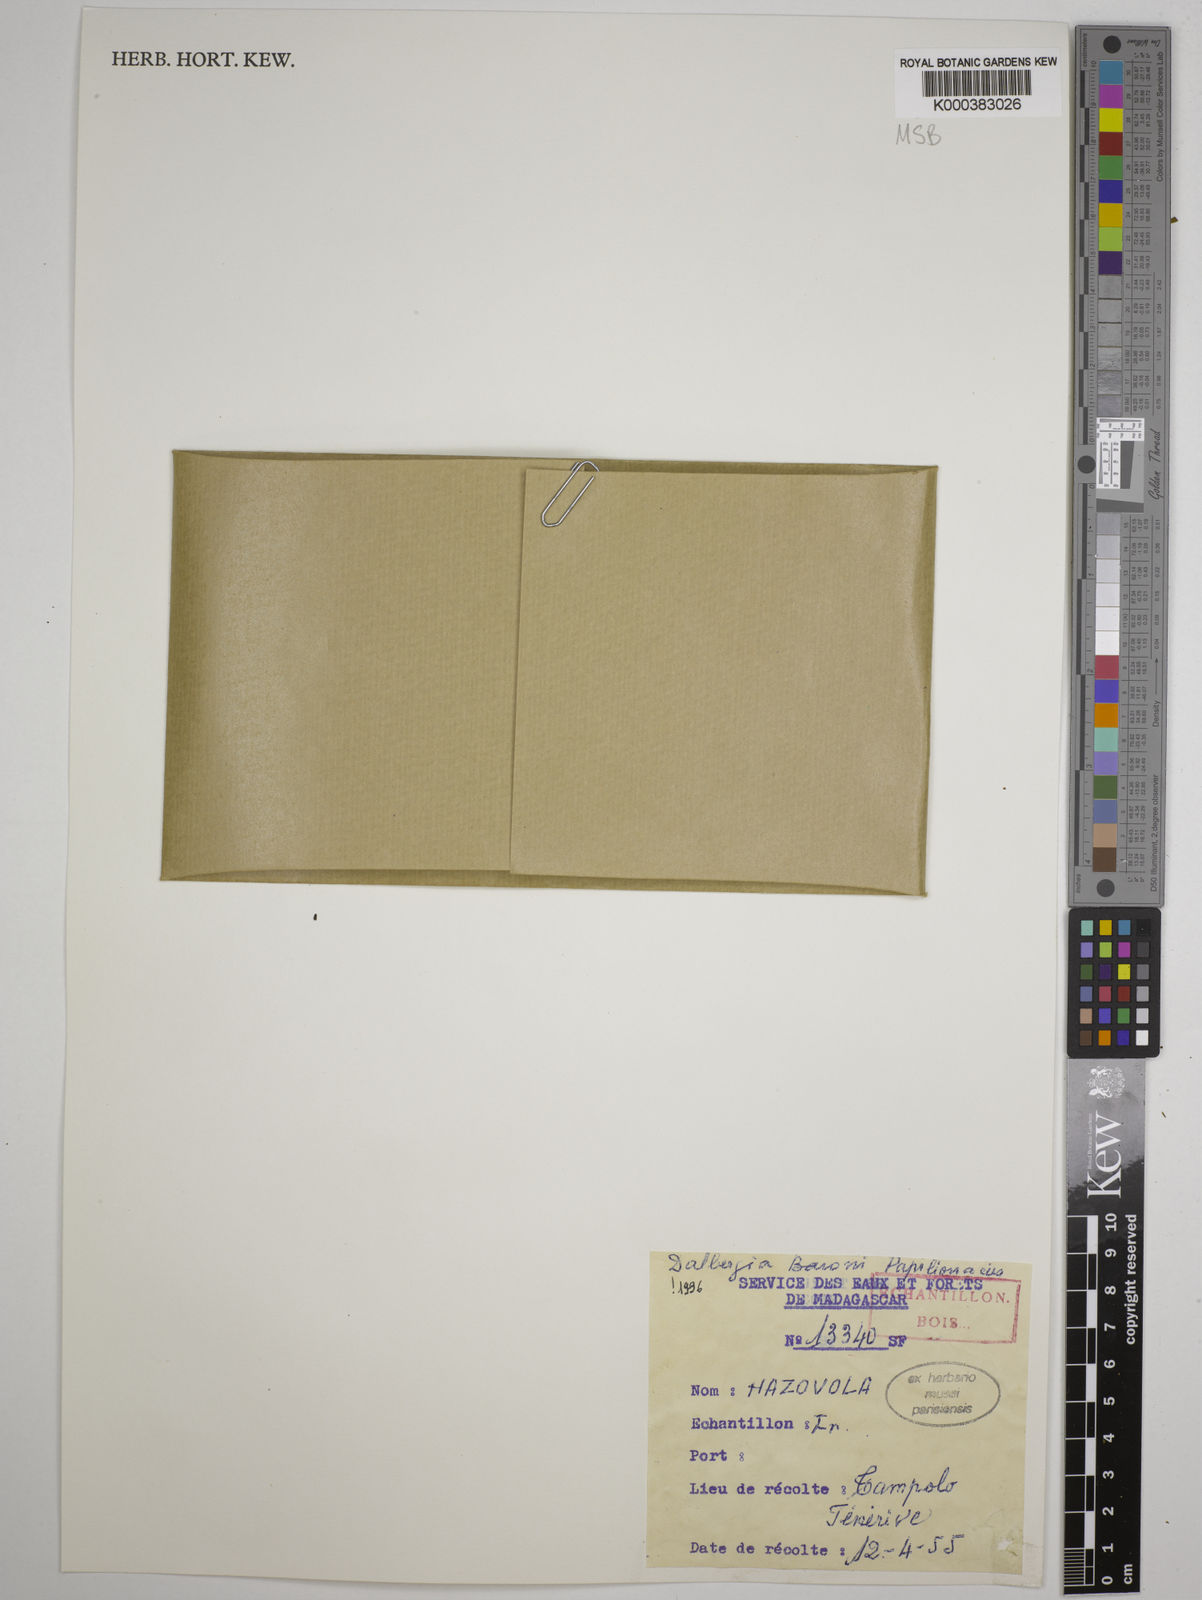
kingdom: Plantae
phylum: Tracheophyta
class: Magnoliopsida
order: Fabales
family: Fabaceae
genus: Dalbergia
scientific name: Dalbergia baronii
